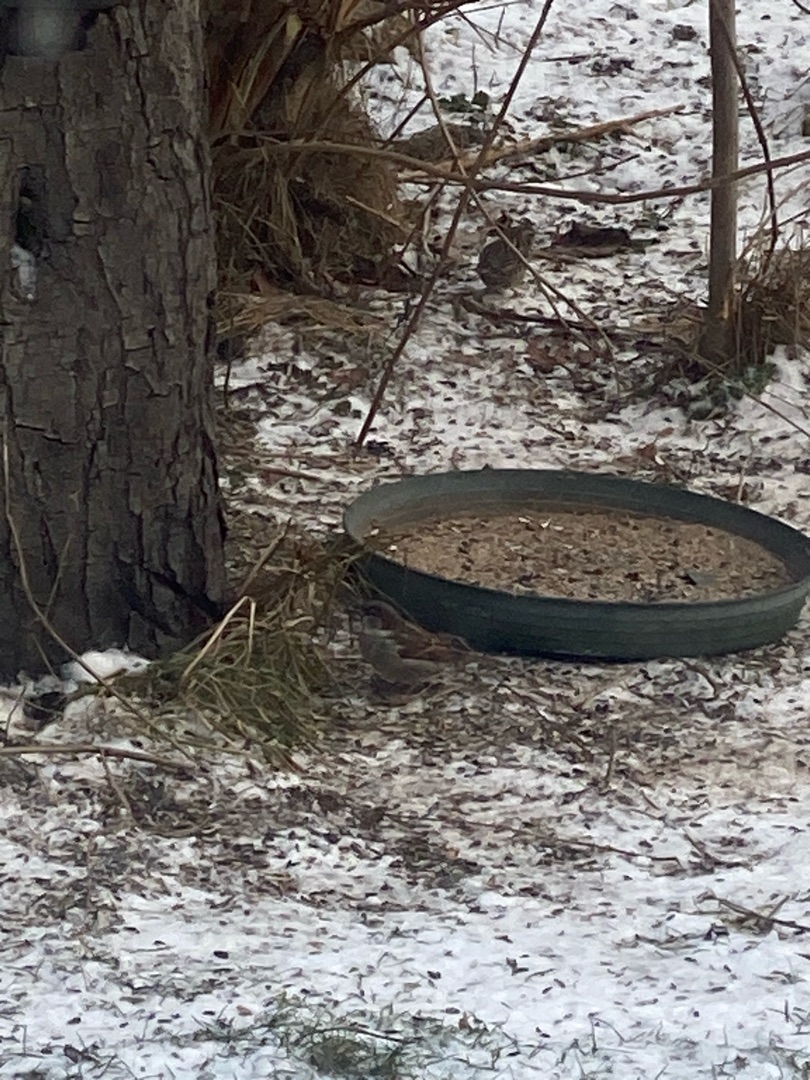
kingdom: Animalia
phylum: Chordata
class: Aves
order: Passeriformes
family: Passeridae
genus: Passer
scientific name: Passer domesticus
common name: Gråspurv
